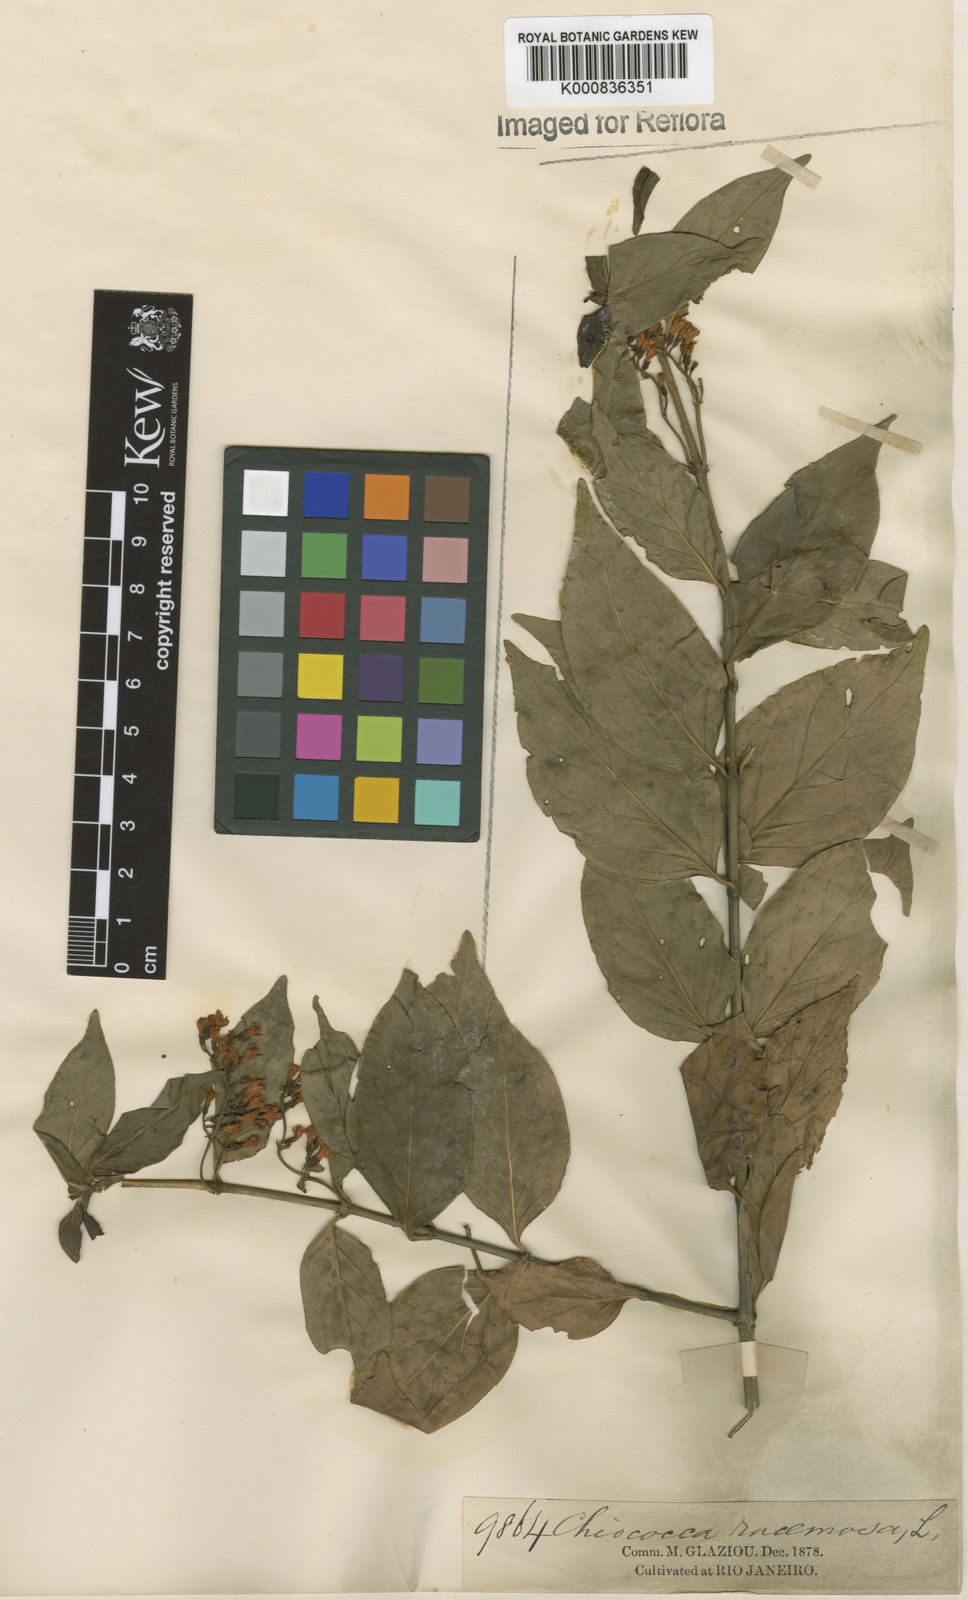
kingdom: Plantae
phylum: Tracheophyta
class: Magnoliopsida
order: Gentianales
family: Rubiaceae
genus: Chiococca
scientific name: Chiococca alba
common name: Snowberry
